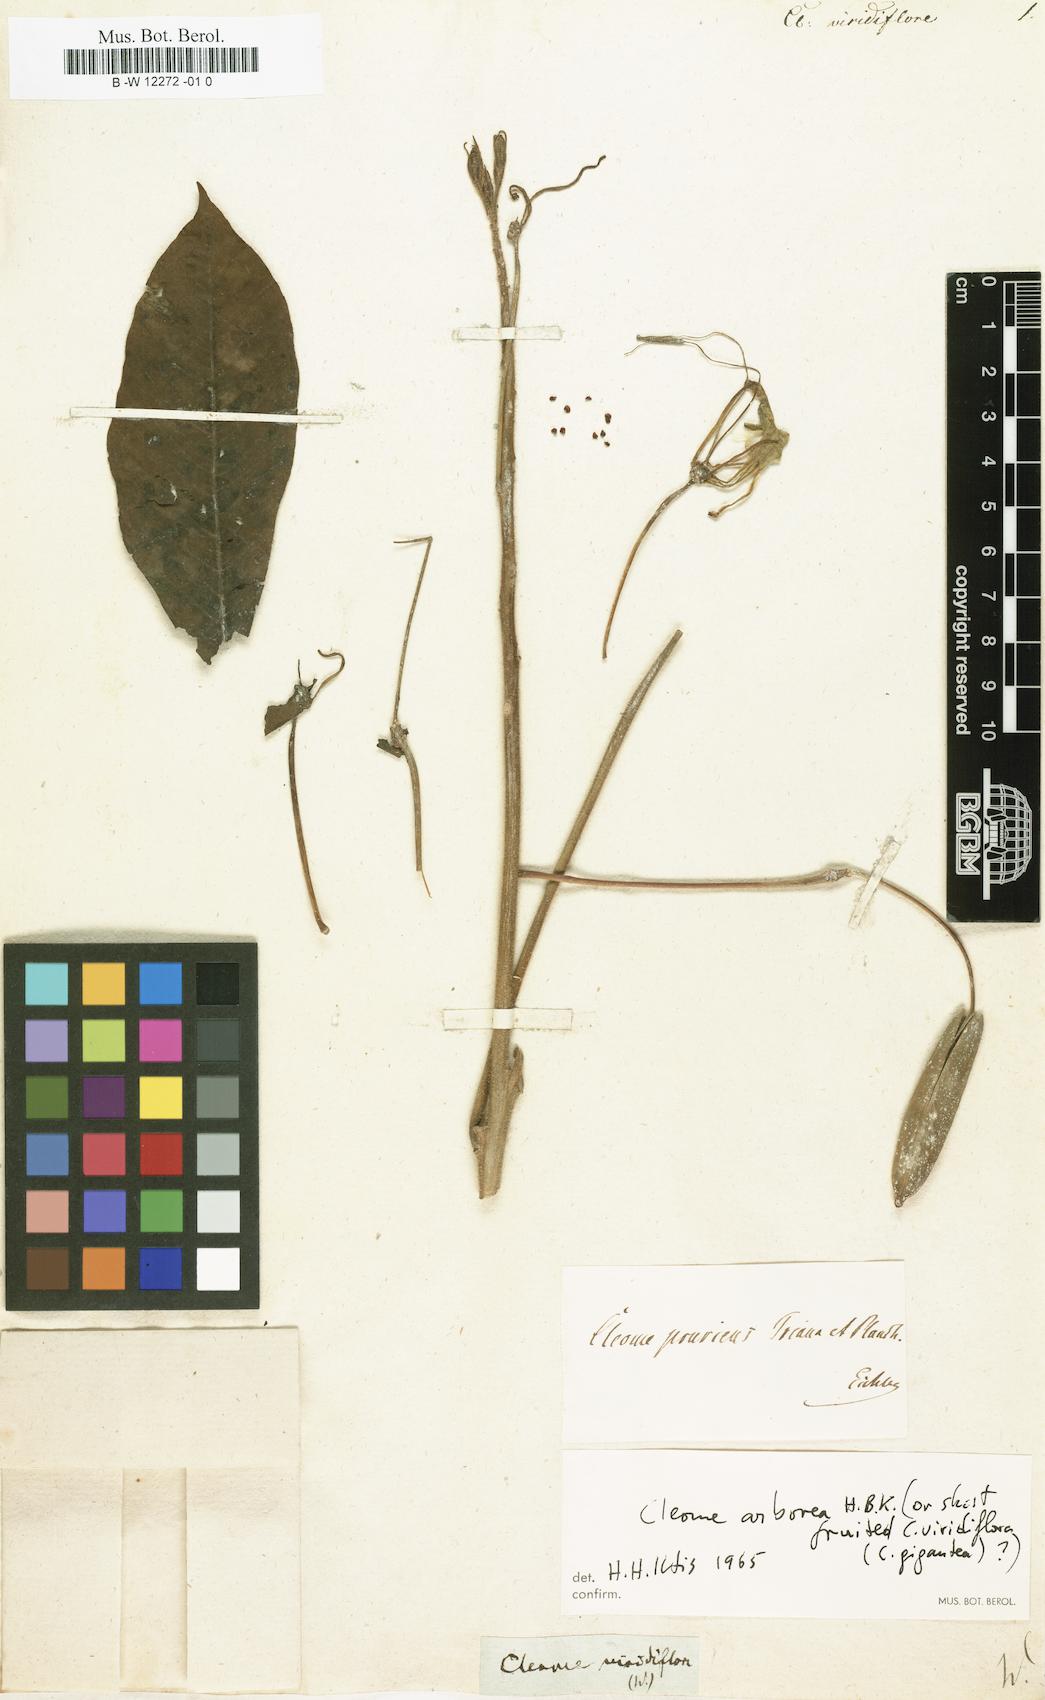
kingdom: Plantae
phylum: Tracheophyta
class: Magnoliopsida
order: Brassicales
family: Cleomaceae
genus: Melidiscus
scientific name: Melidiscus gigantea
